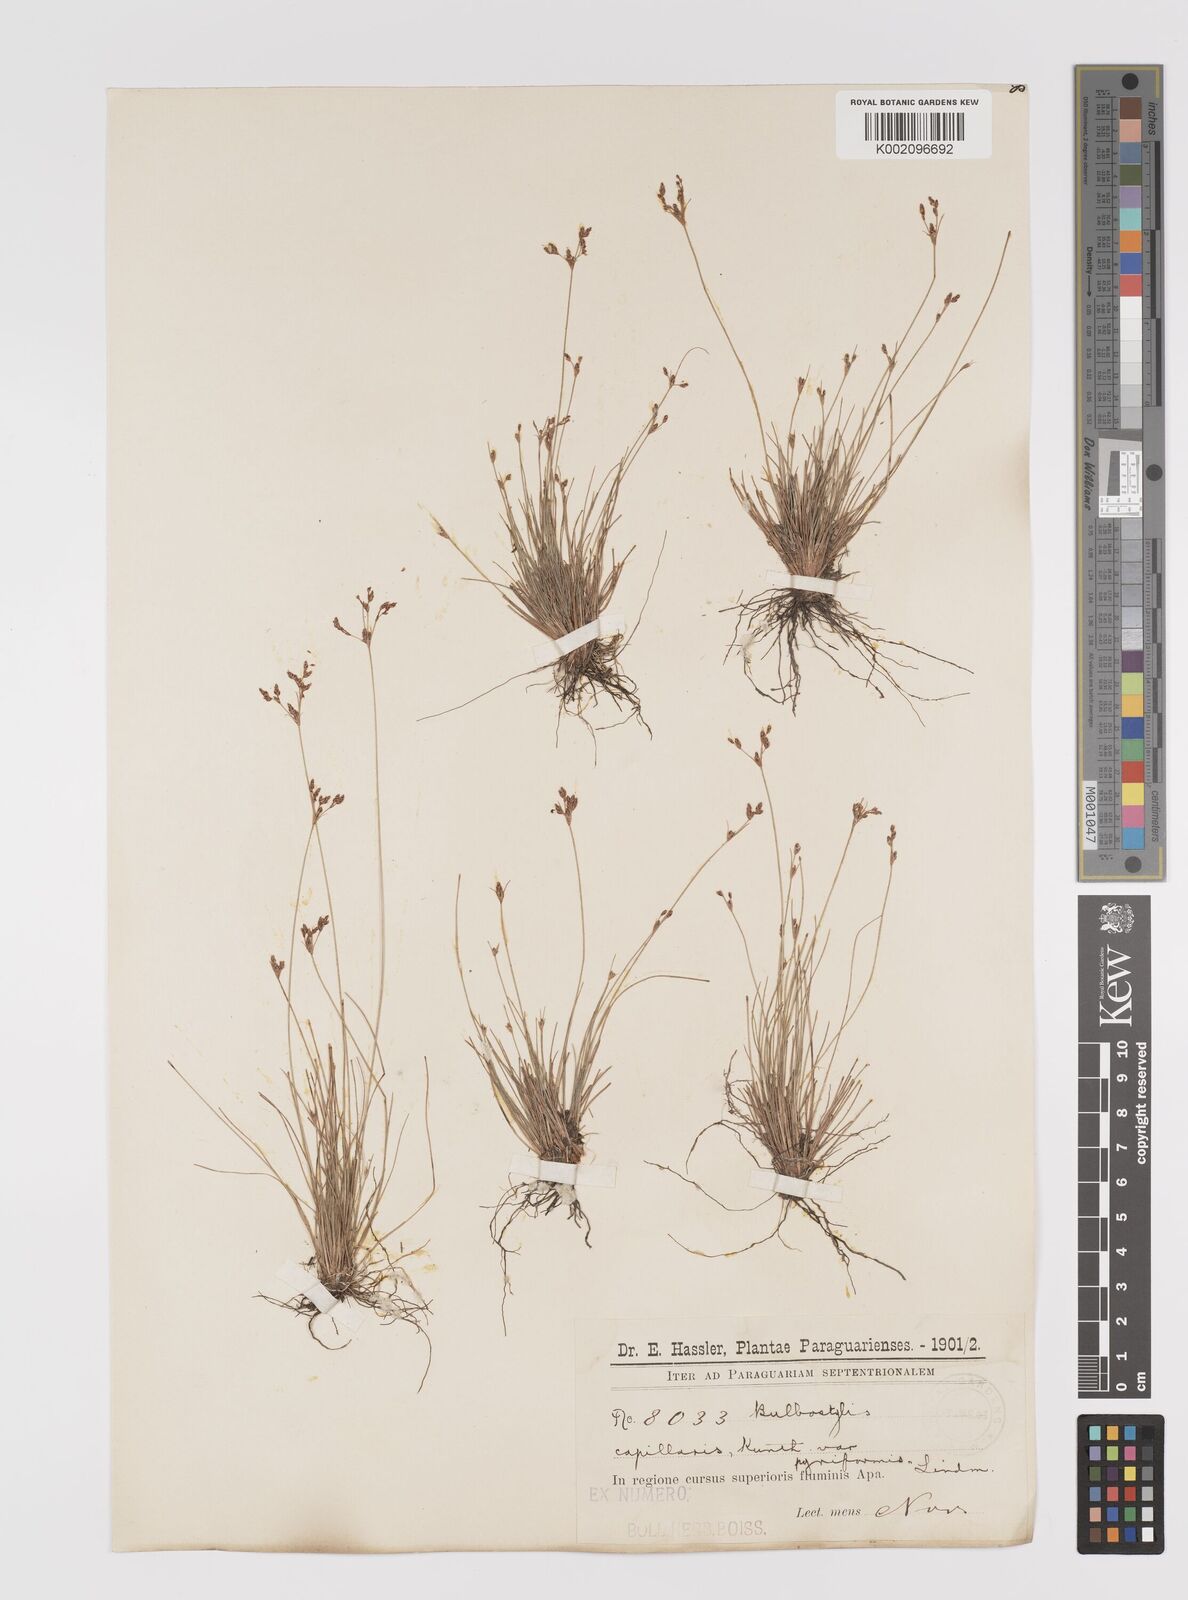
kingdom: Plantae
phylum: Tracheophyta
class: Liliopsida
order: Poales
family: Cyperaceae
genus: Bulbostylis
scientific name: Bulbostylis capillaris
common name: Densetuft hairsedge
